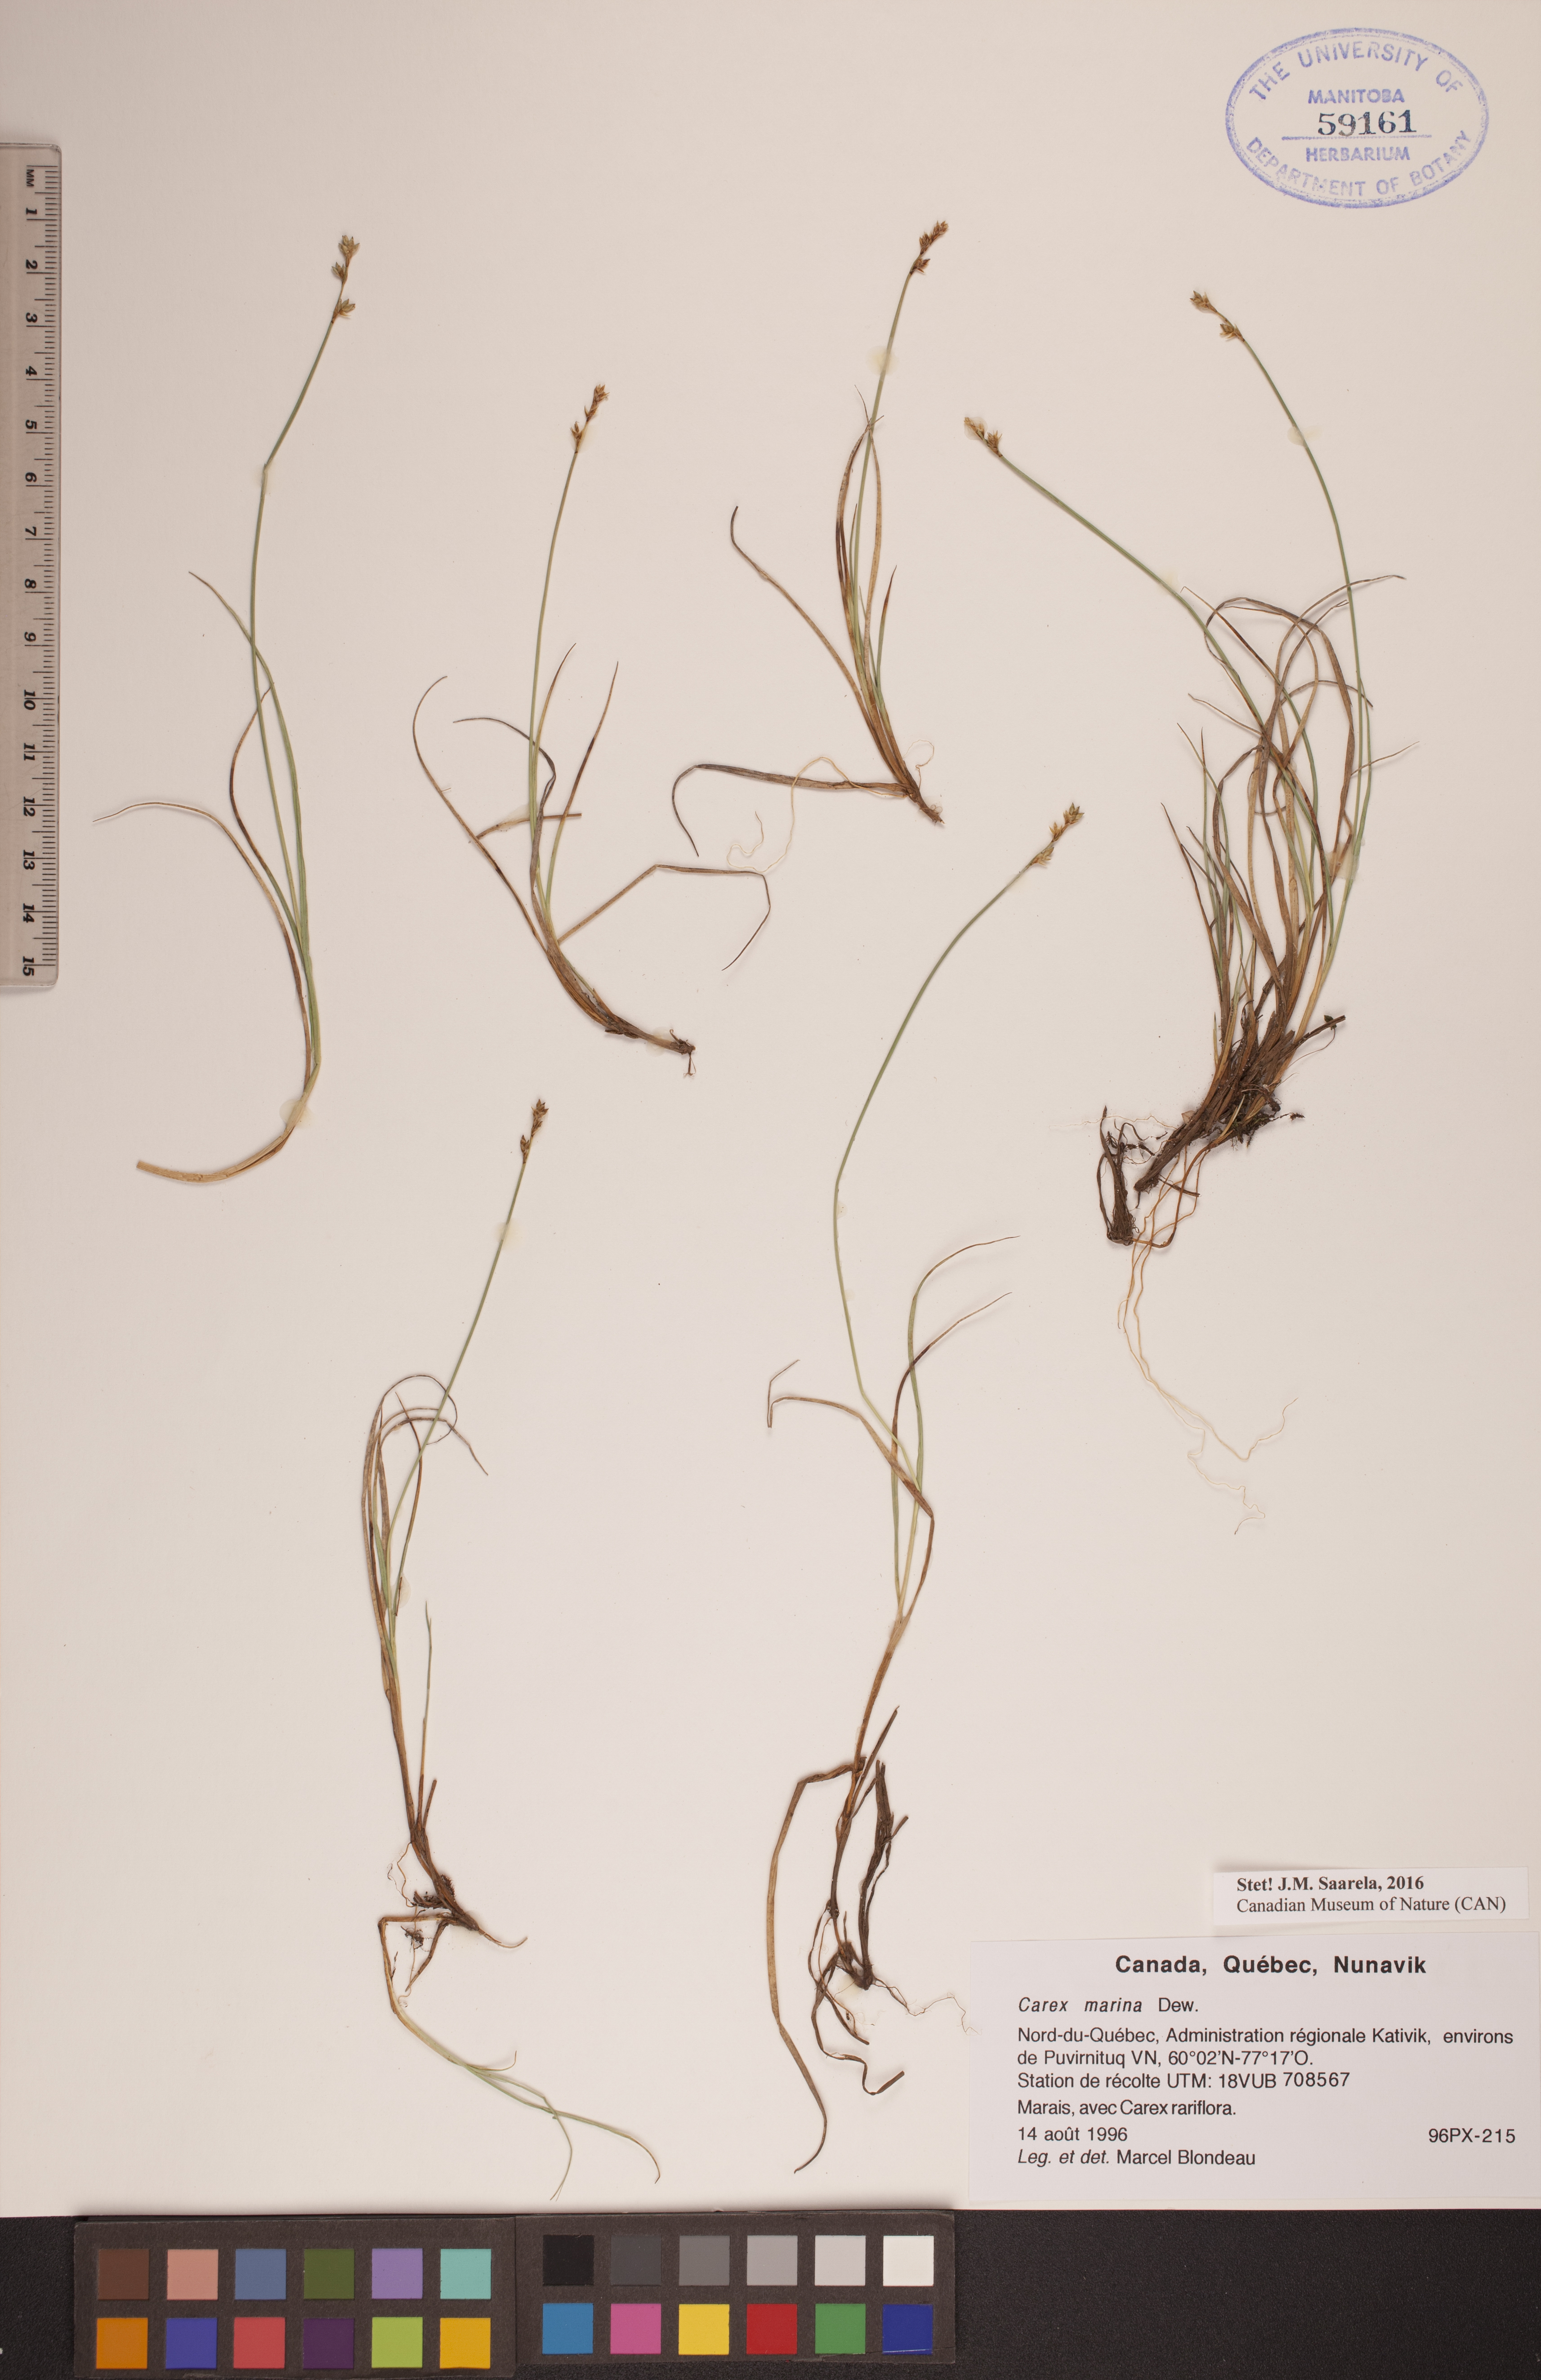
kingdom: Plantae
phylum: Tracheophyta
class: Liliopsida
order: Poales
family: Cyperaceae
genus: Carex
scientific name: Carex marina
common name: Seashore sedge
